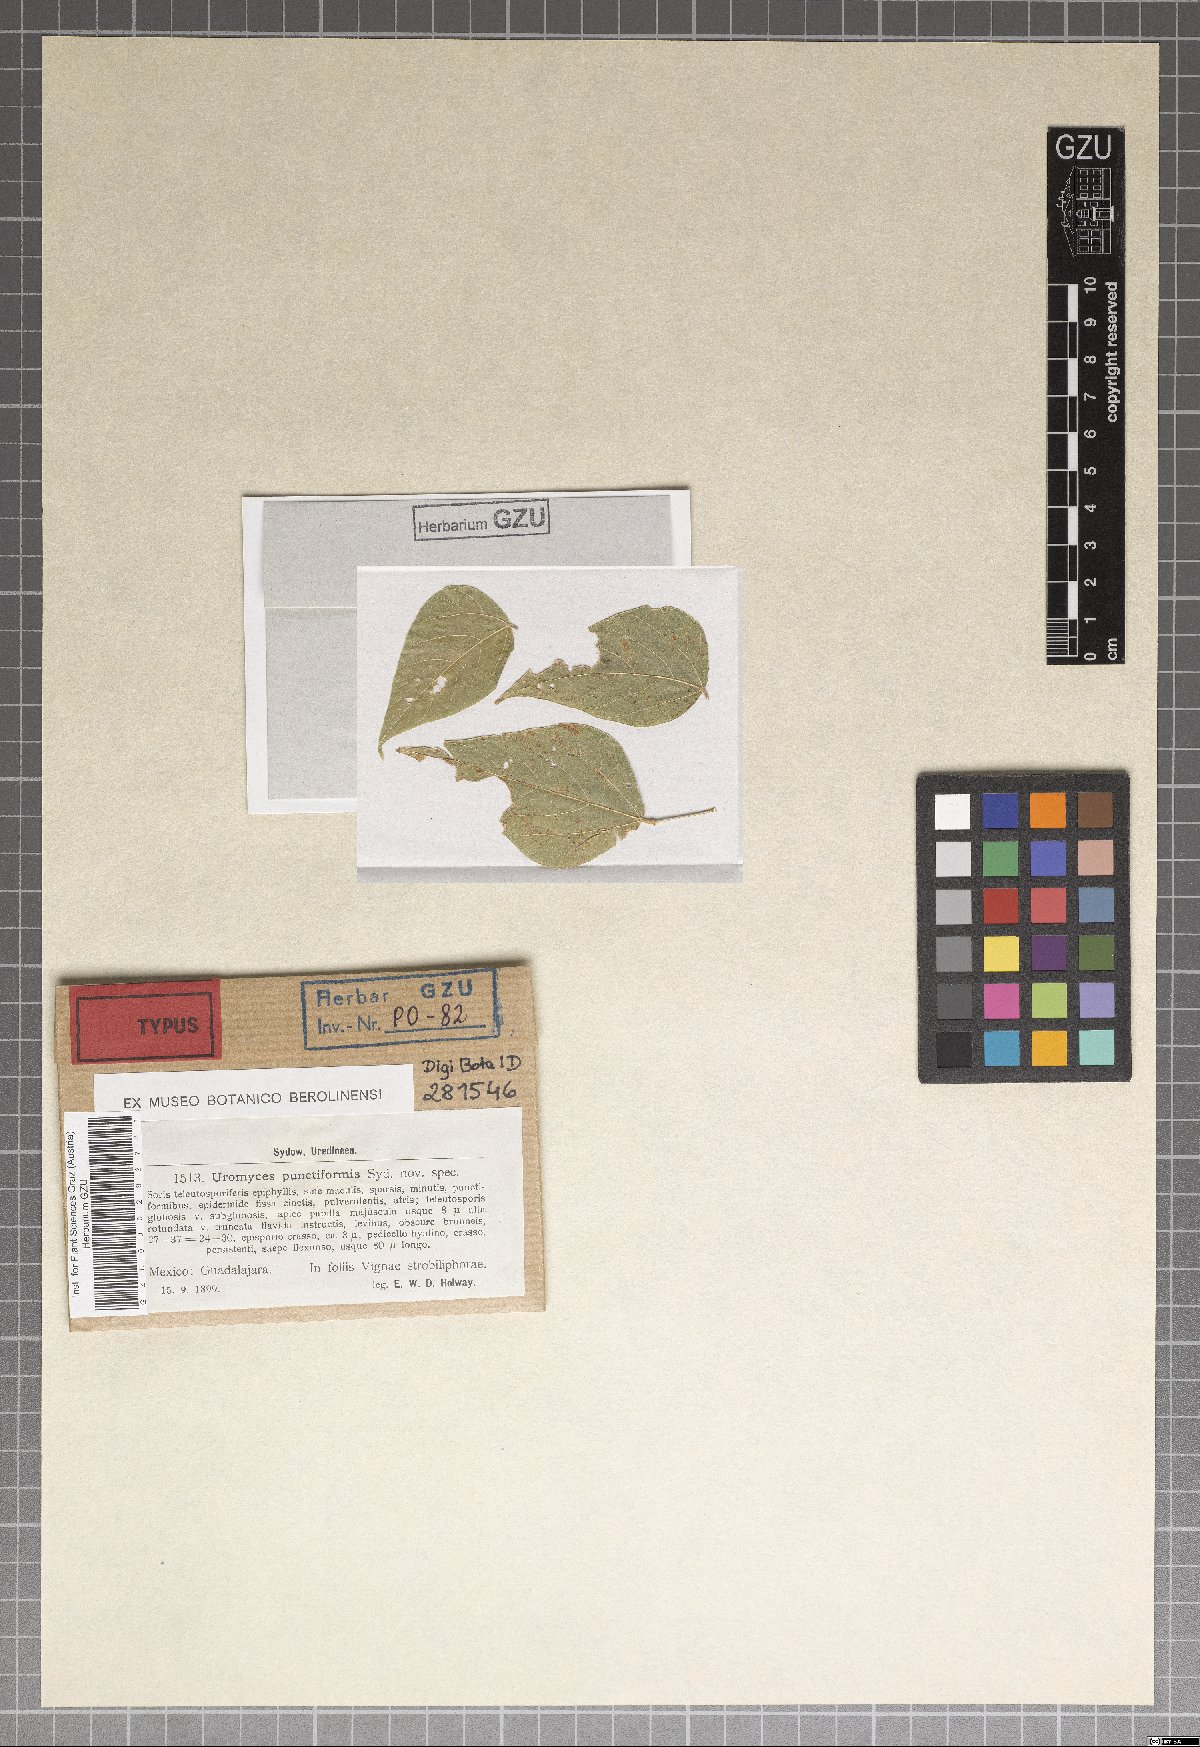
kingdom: Fungi
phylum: Basidiomycota
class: Pucciniomycetes
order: Pucciniales
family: Pucciniaceae
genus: Uromyces
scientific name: Uromyces punctiformis
